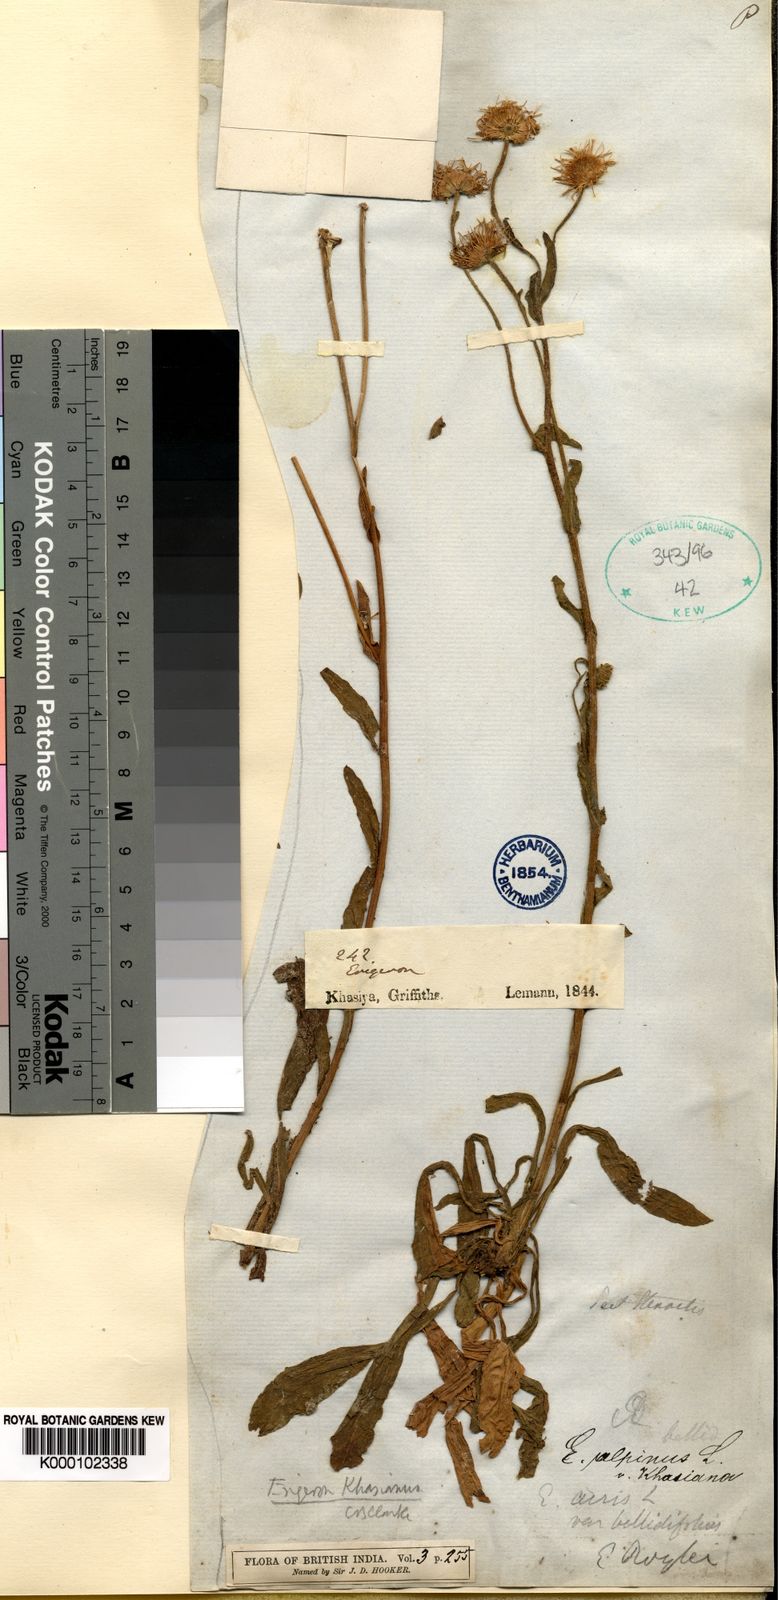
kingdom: Plantae
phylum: Tracheophyta
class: Magnoliopsida
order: Asterales
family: Asteraceae
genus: Erigeron
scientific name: Erigeron alpinus
